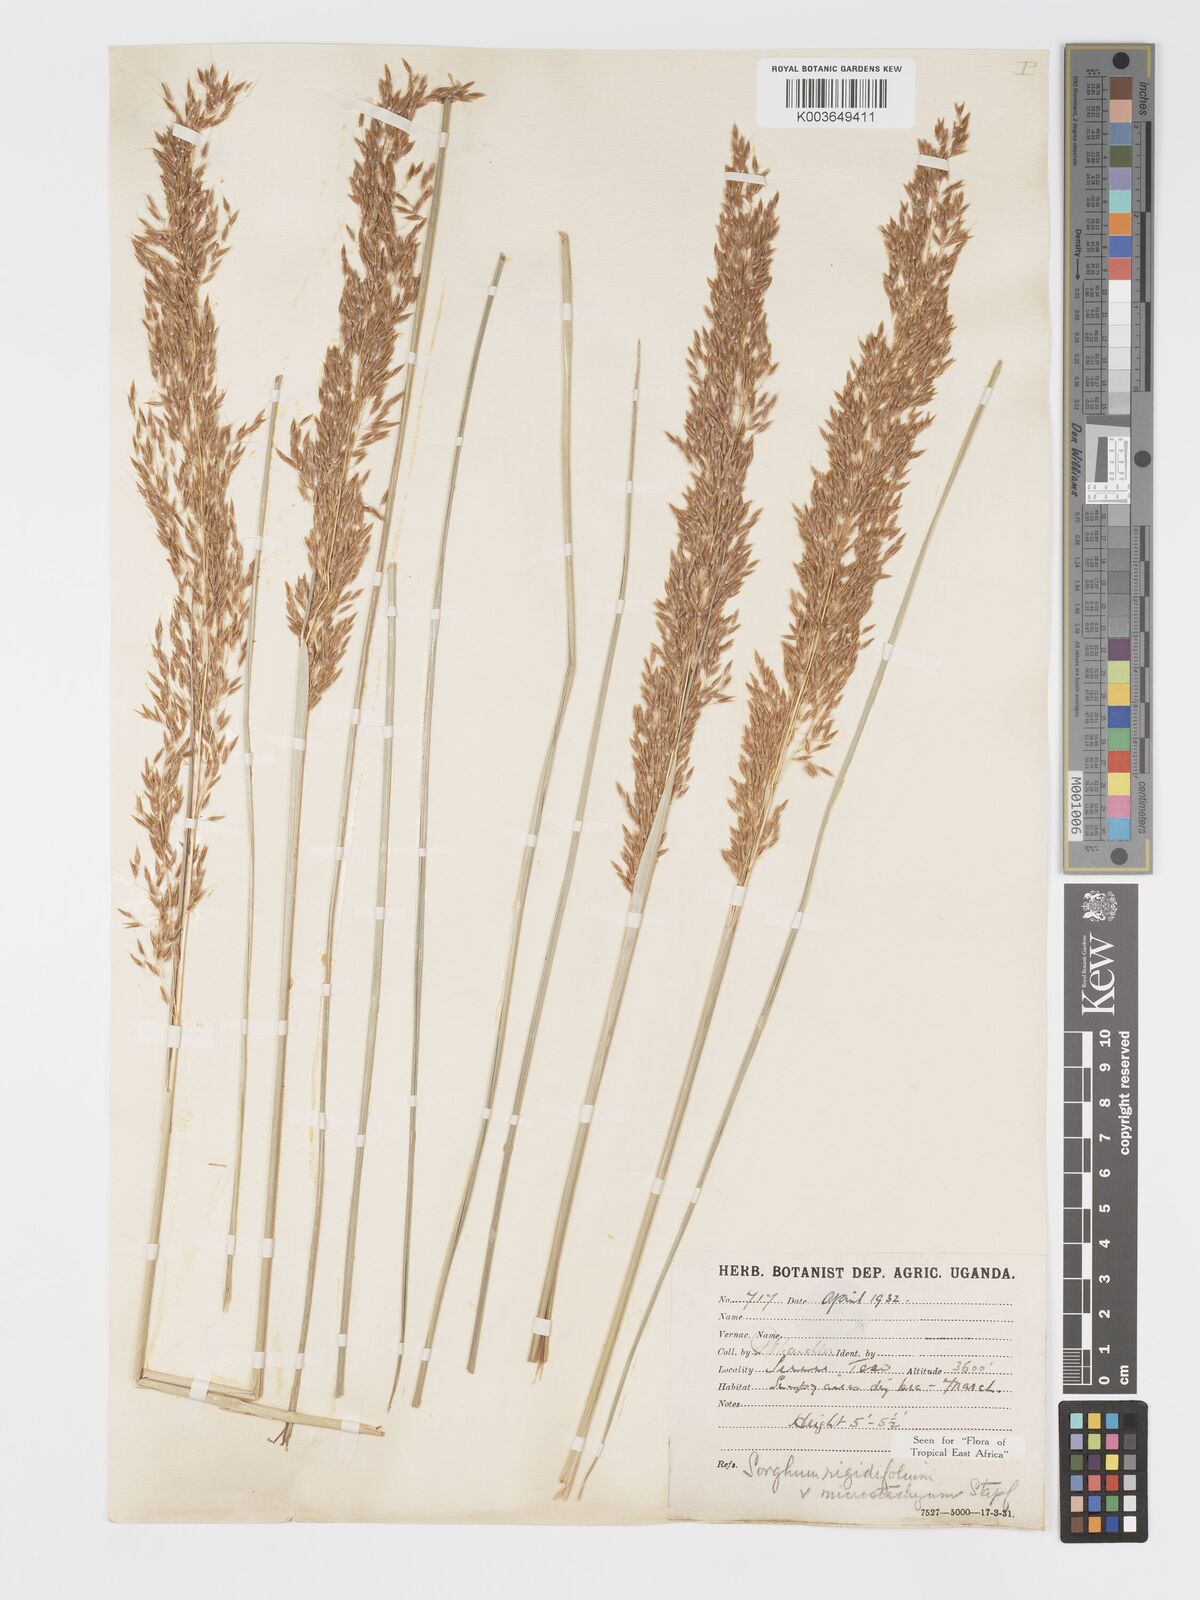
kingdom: Plantae
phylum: Tracheophyta
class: Liliopsida
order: Poales
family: Poaceae
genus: Sorghastrum
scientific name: Sorghastrum stipoides
